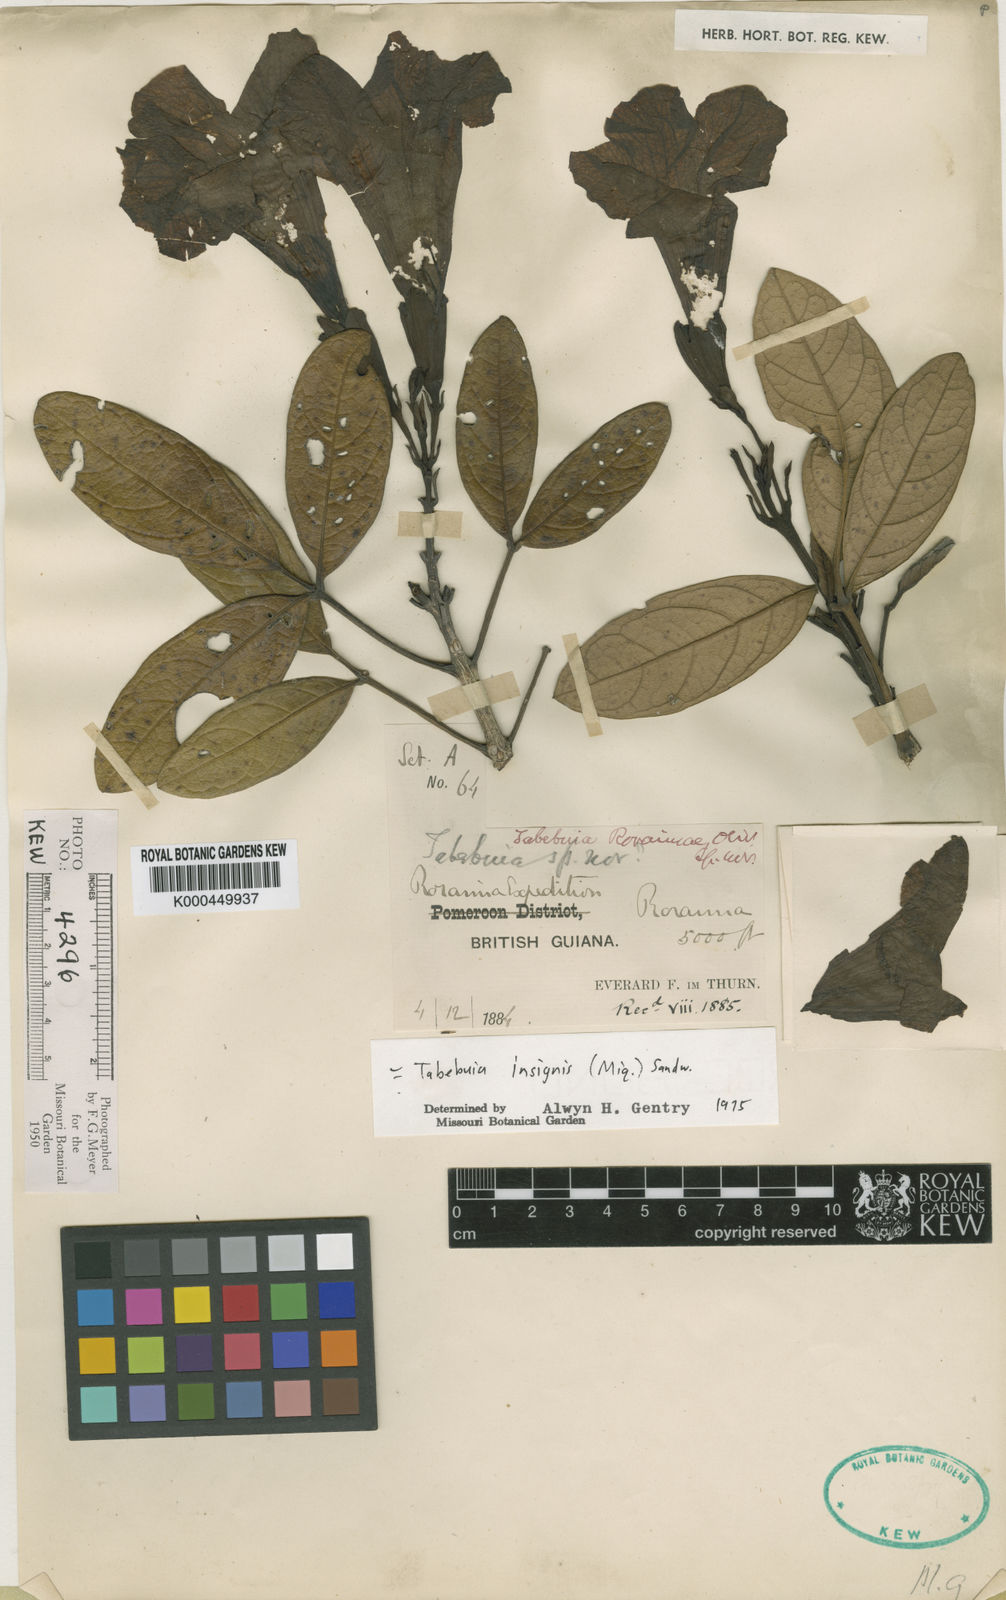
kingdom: Plantae
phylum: Tracheophyta
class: Magnoliopsida
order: Lamiales
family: Bignoniaceae
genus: Tabebuia
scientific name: Tabebuia insignis
